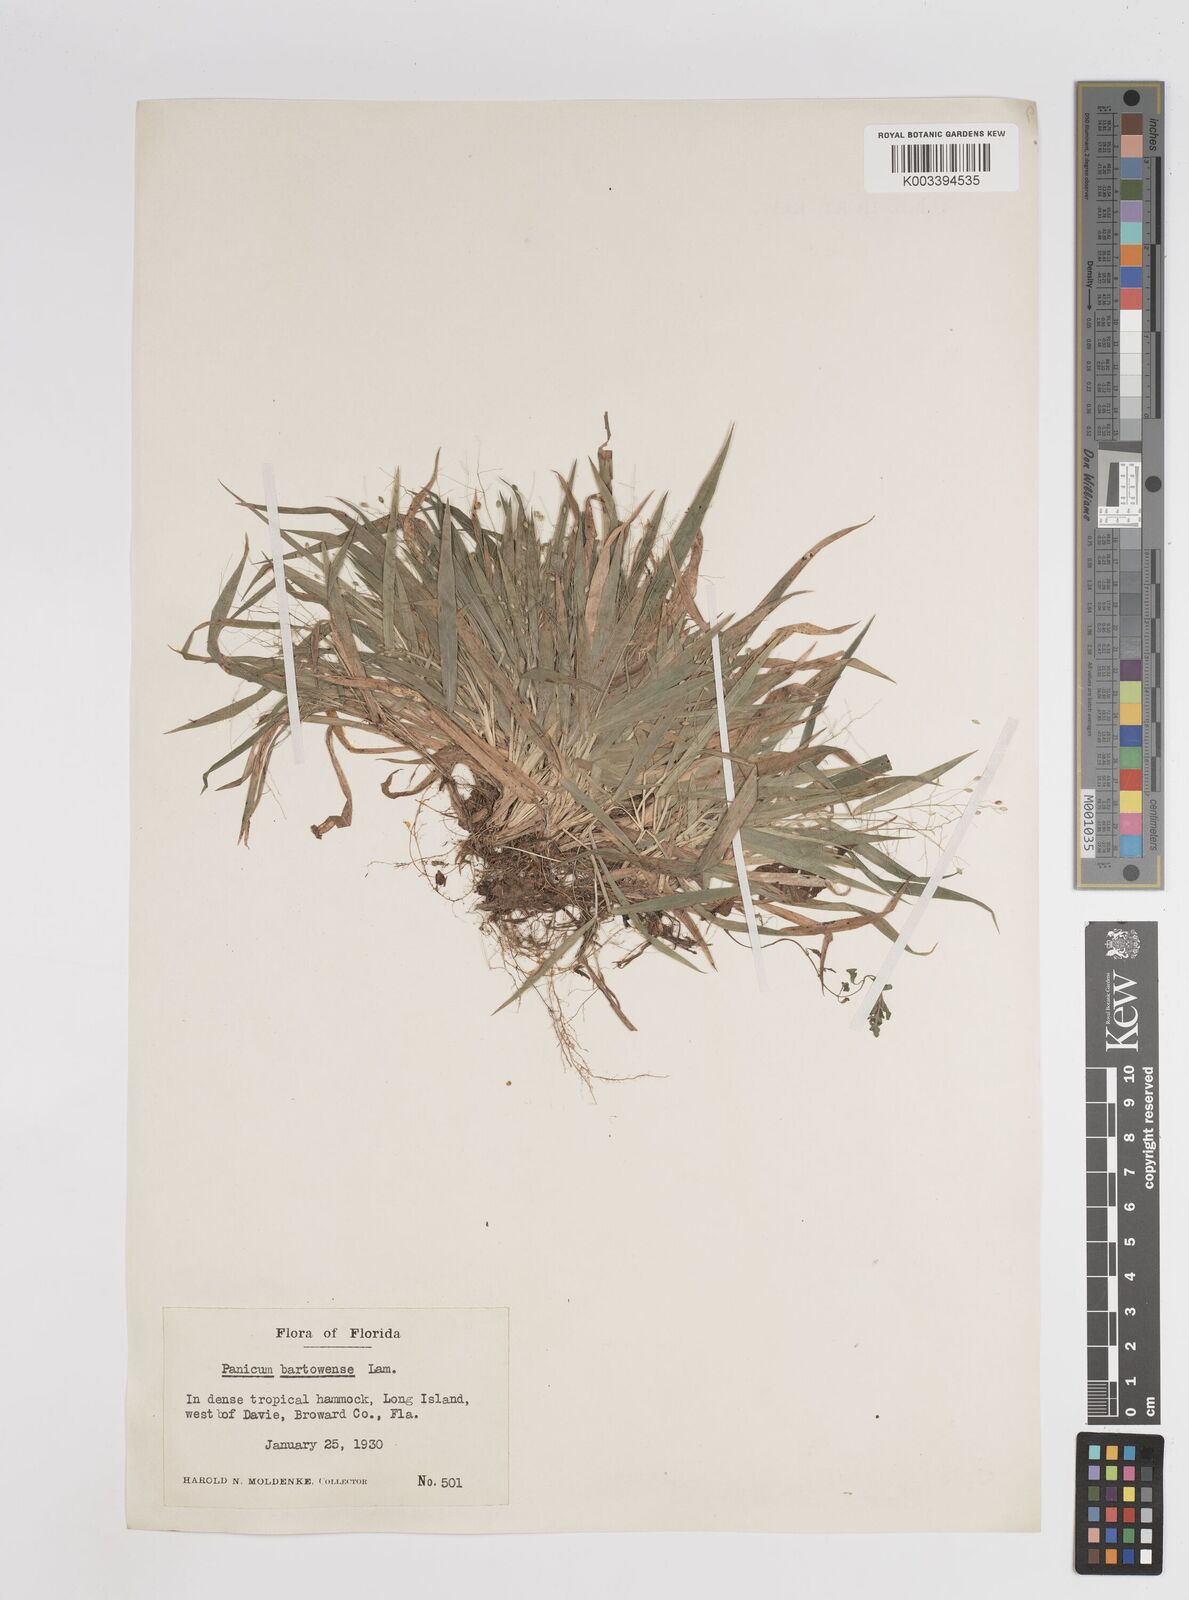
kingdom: Plantae
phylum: Tracheophyta
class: Liliopsida
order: Poales
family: Poaceae
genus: Panicum
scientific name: Panicum bartowense
